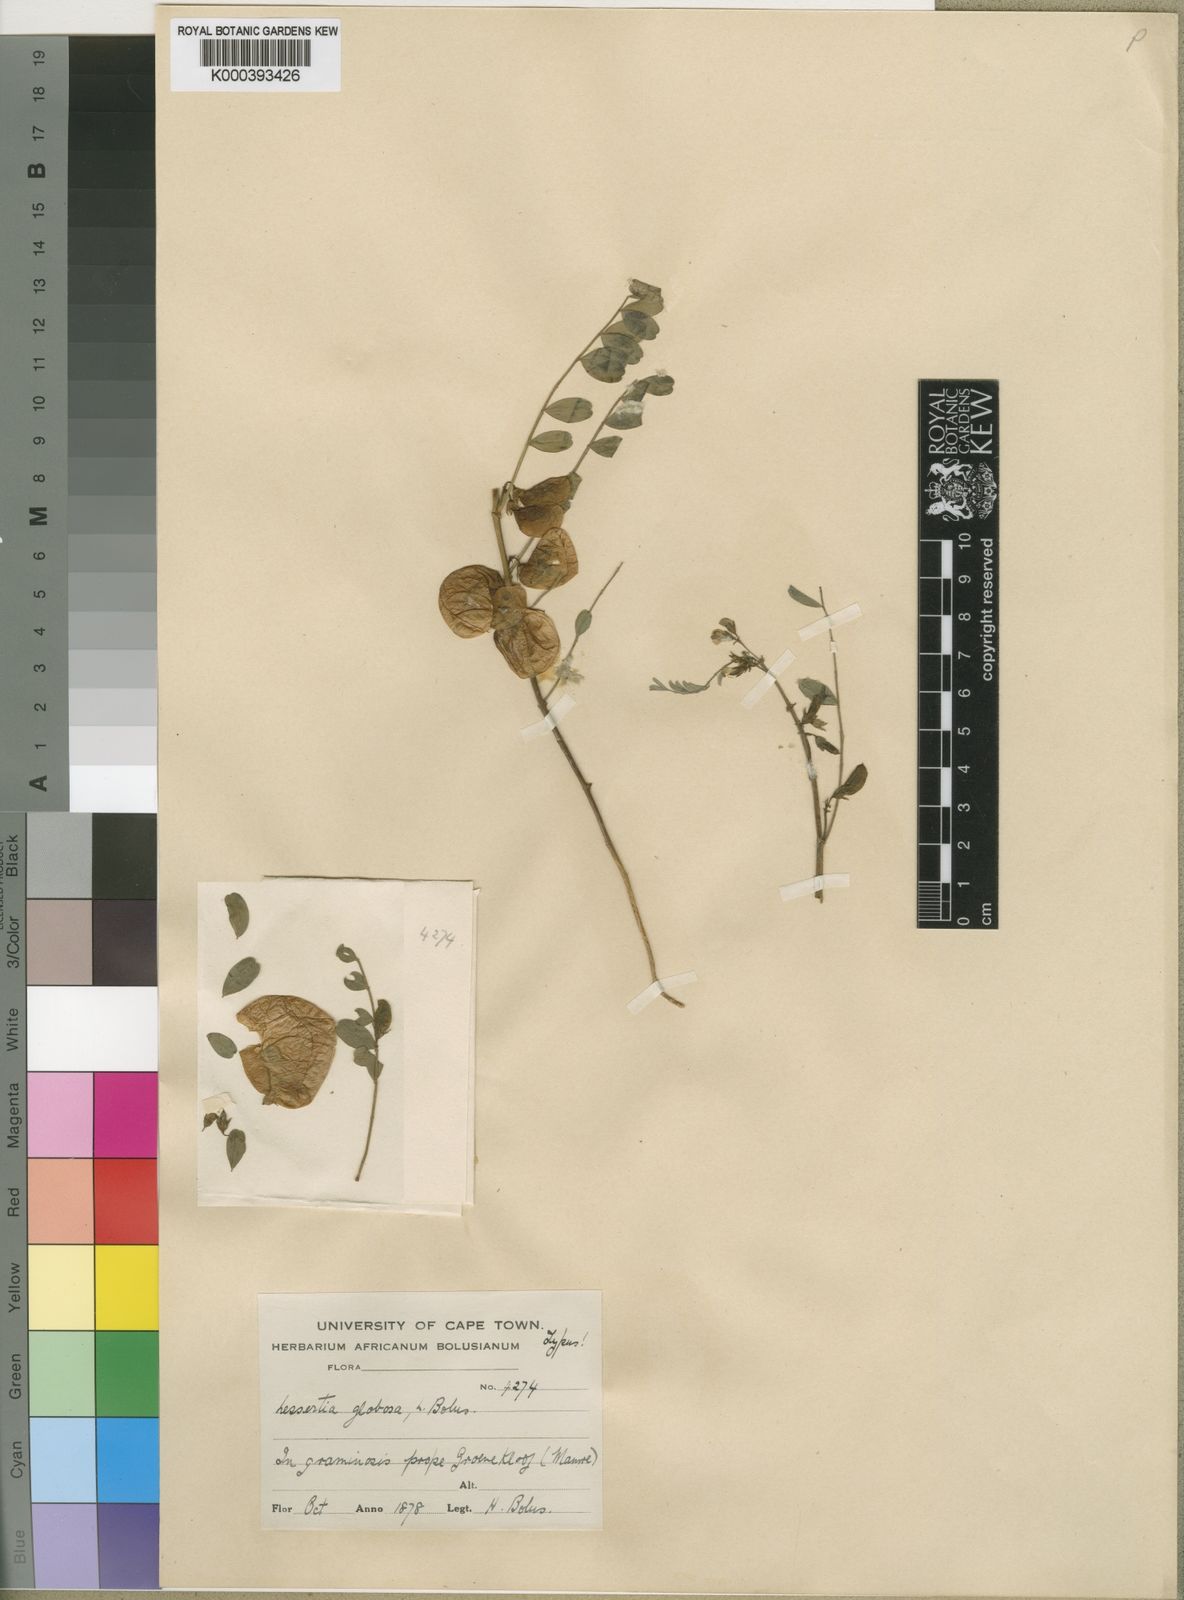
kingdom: Plantae
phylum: Tracheophyta
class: Magnoliopsida
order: Fabales
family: Fabaceae
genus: Lessertia
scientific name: Lessertia globosa
